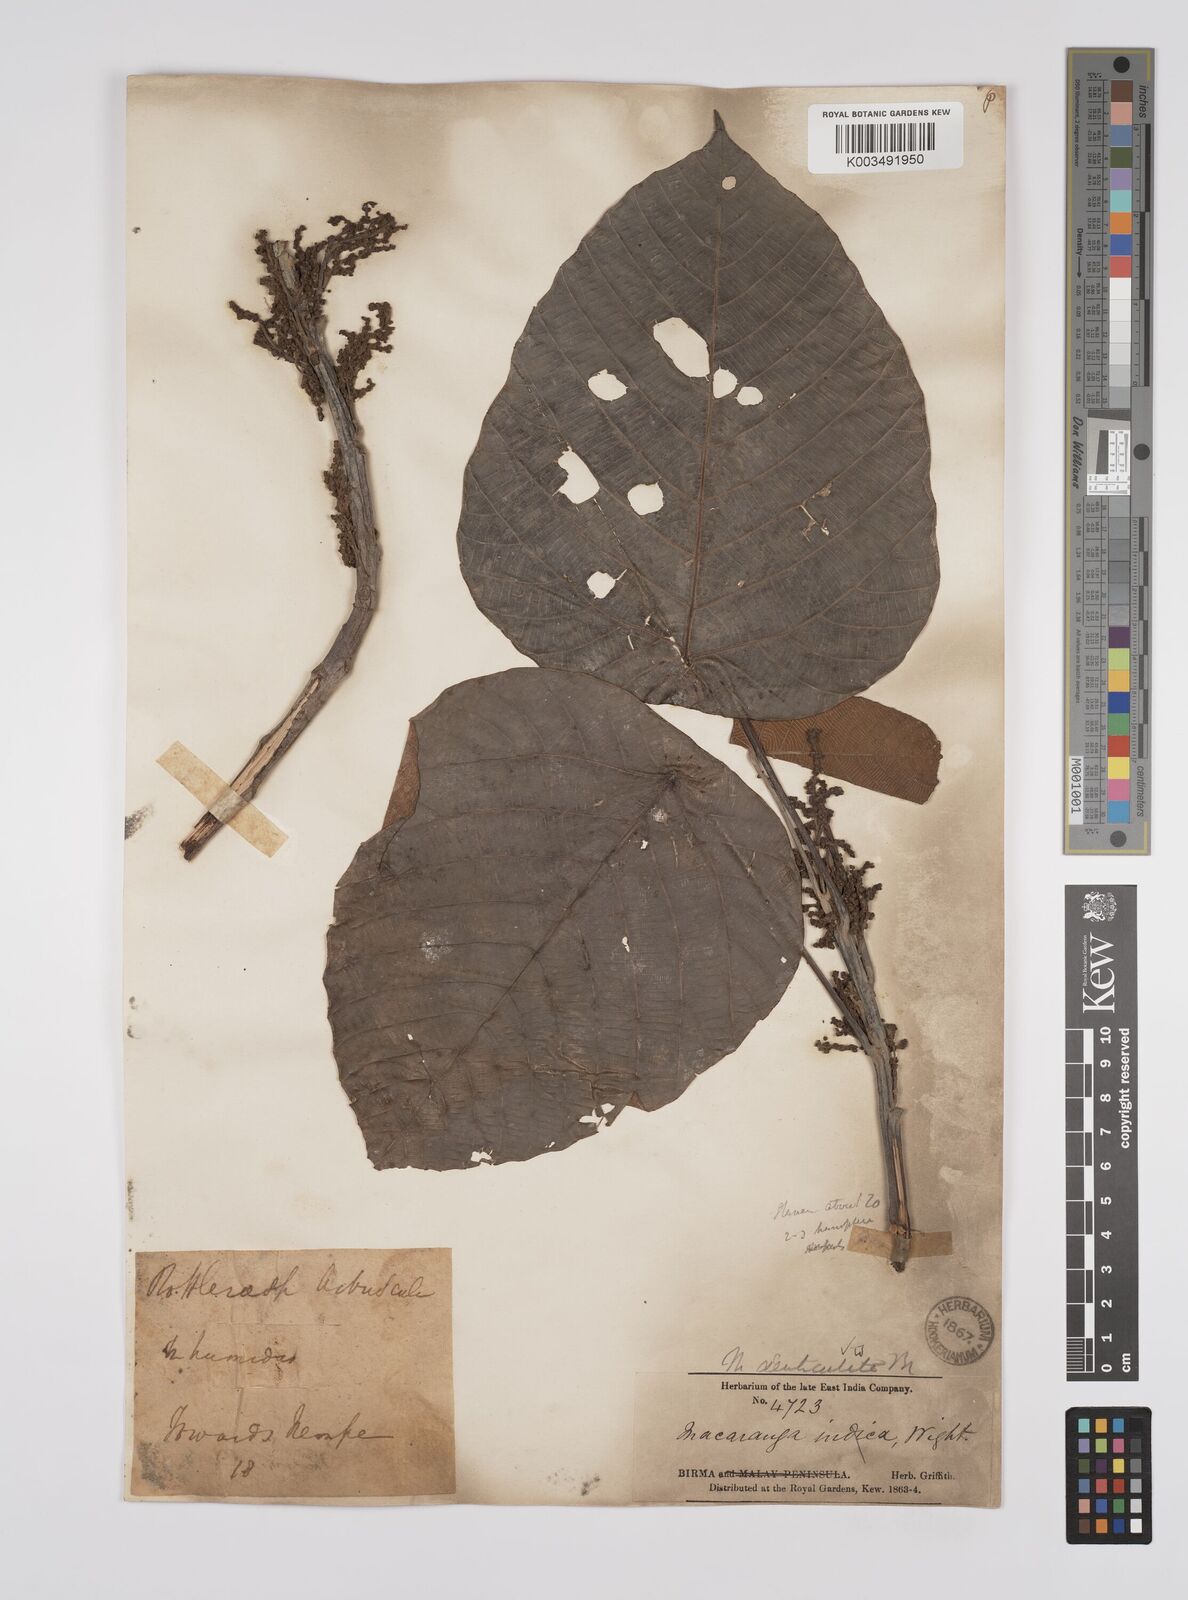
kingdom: Plantae
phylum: Tracheophyta
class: Magnoliopsida
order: Malpighiales
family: Euphorbiaceae
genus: Macaranga
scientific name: Macaranga denticulata
